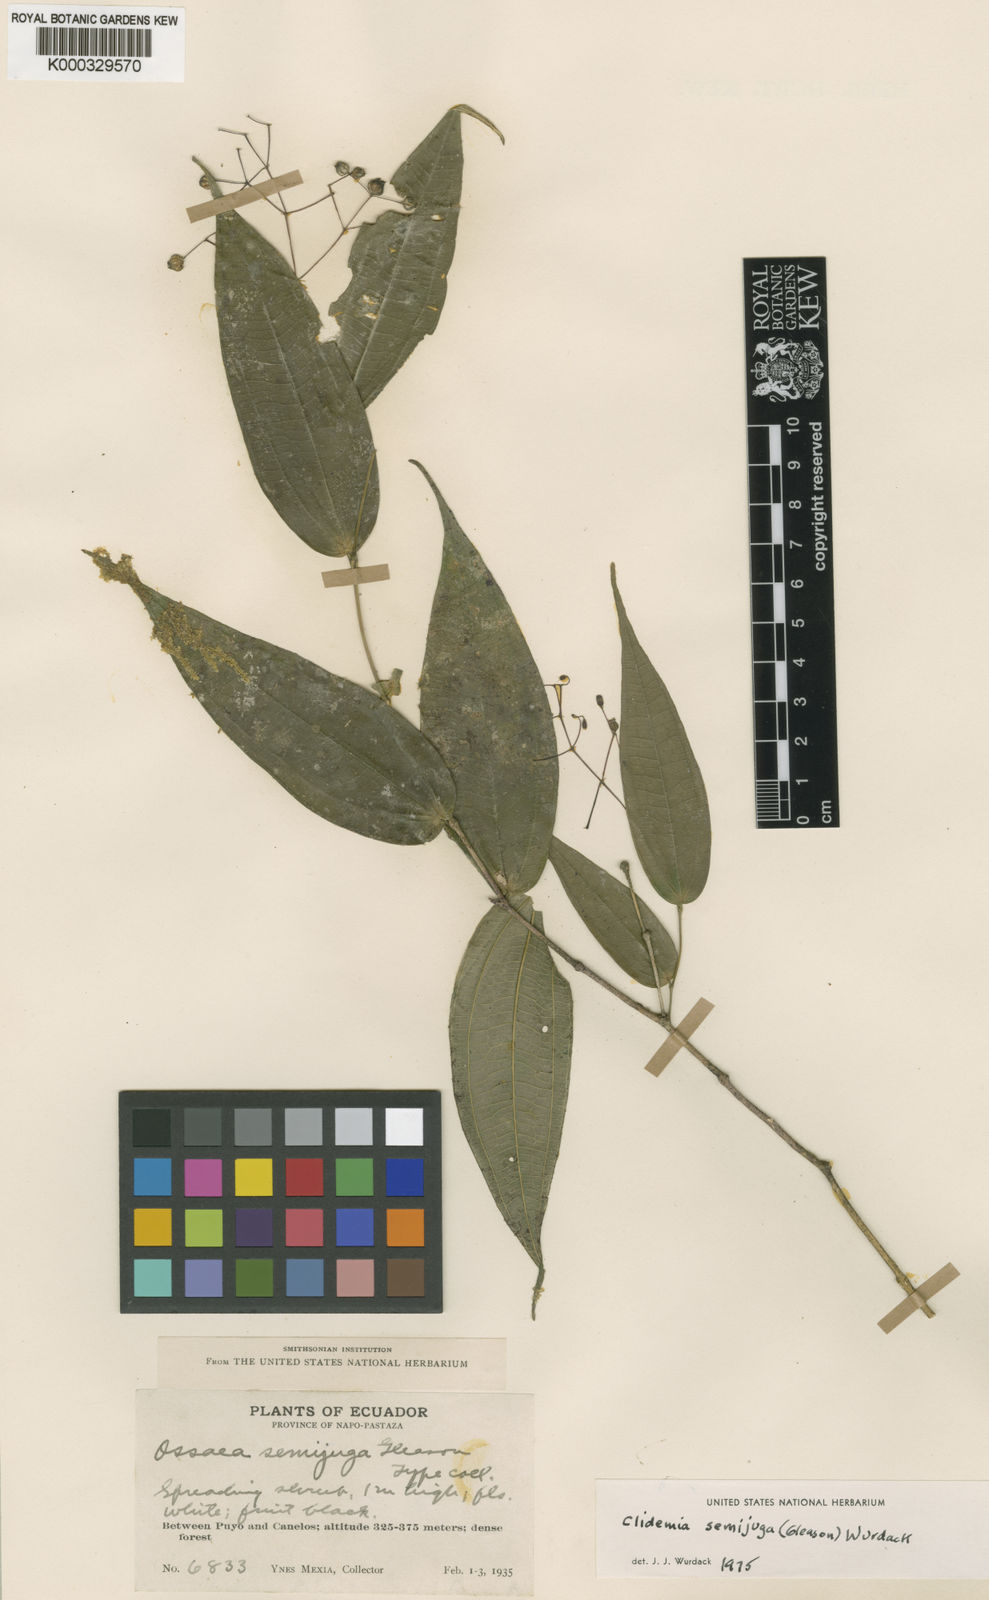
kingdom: Plantae
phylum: Tracheophyta
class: Magnoliopsida
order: Myrtales
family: Melastomataceae
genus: Miconia
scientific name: Miconia semijuga
